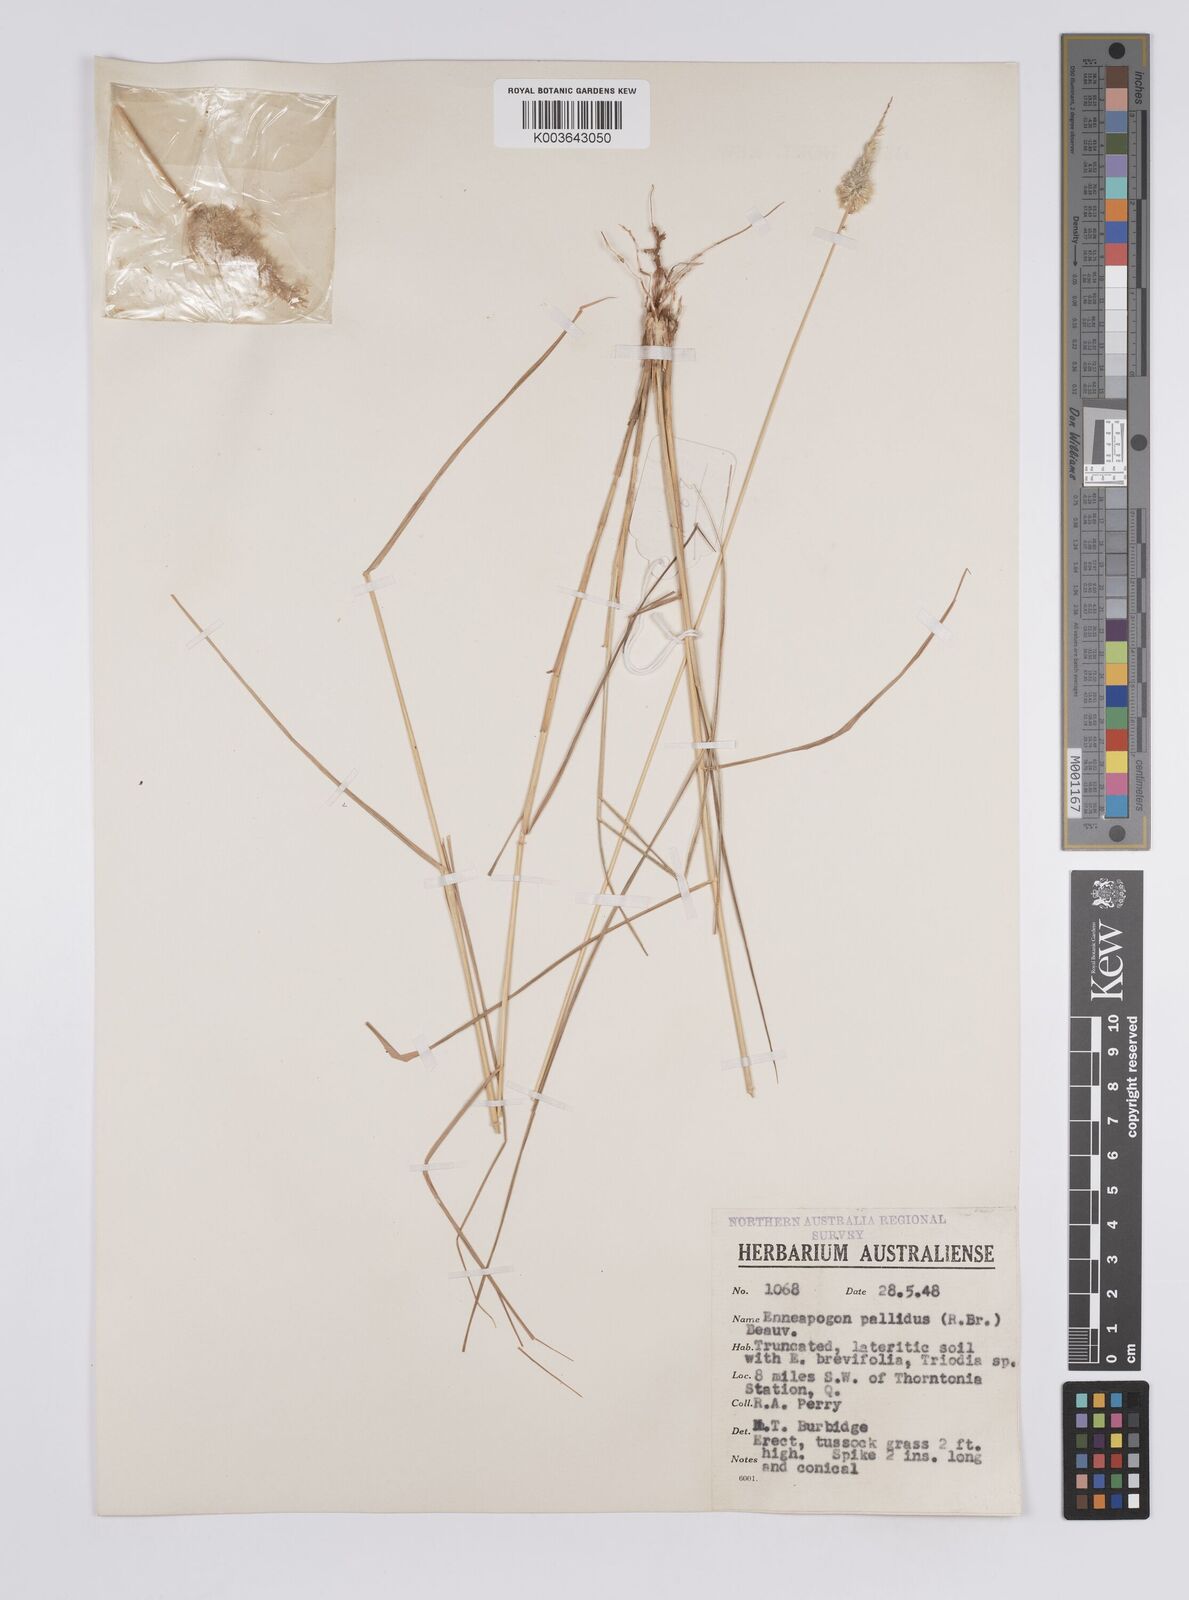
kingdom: Plantae
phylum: Tracheophyta
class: Liliopsida
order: Poales
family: Poaceae
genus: Enneapogon
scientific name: Enneapogon pallidus
